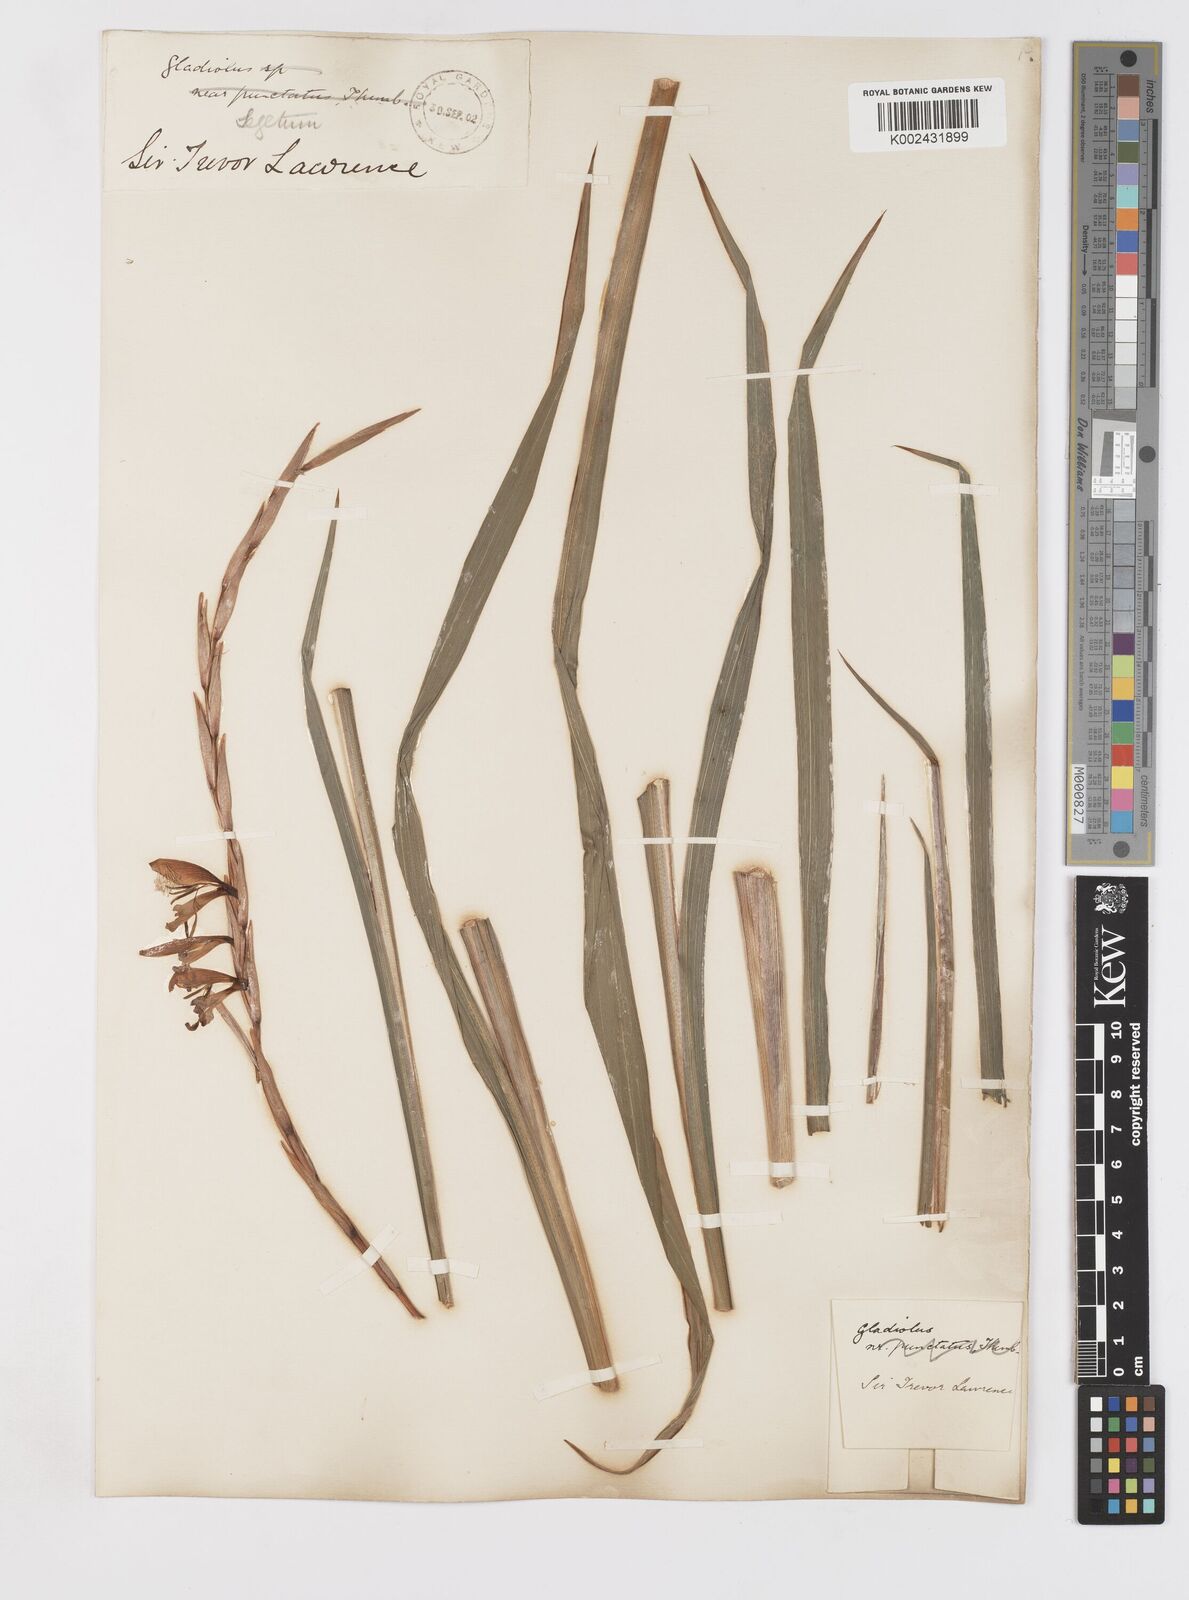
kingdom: Plantae
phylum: Tracheophyta
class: Liliopsida
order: Asparagales
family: Iridaceae
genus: Gladiolus
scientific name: Gladiolus italicus
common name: Field gladiolus
